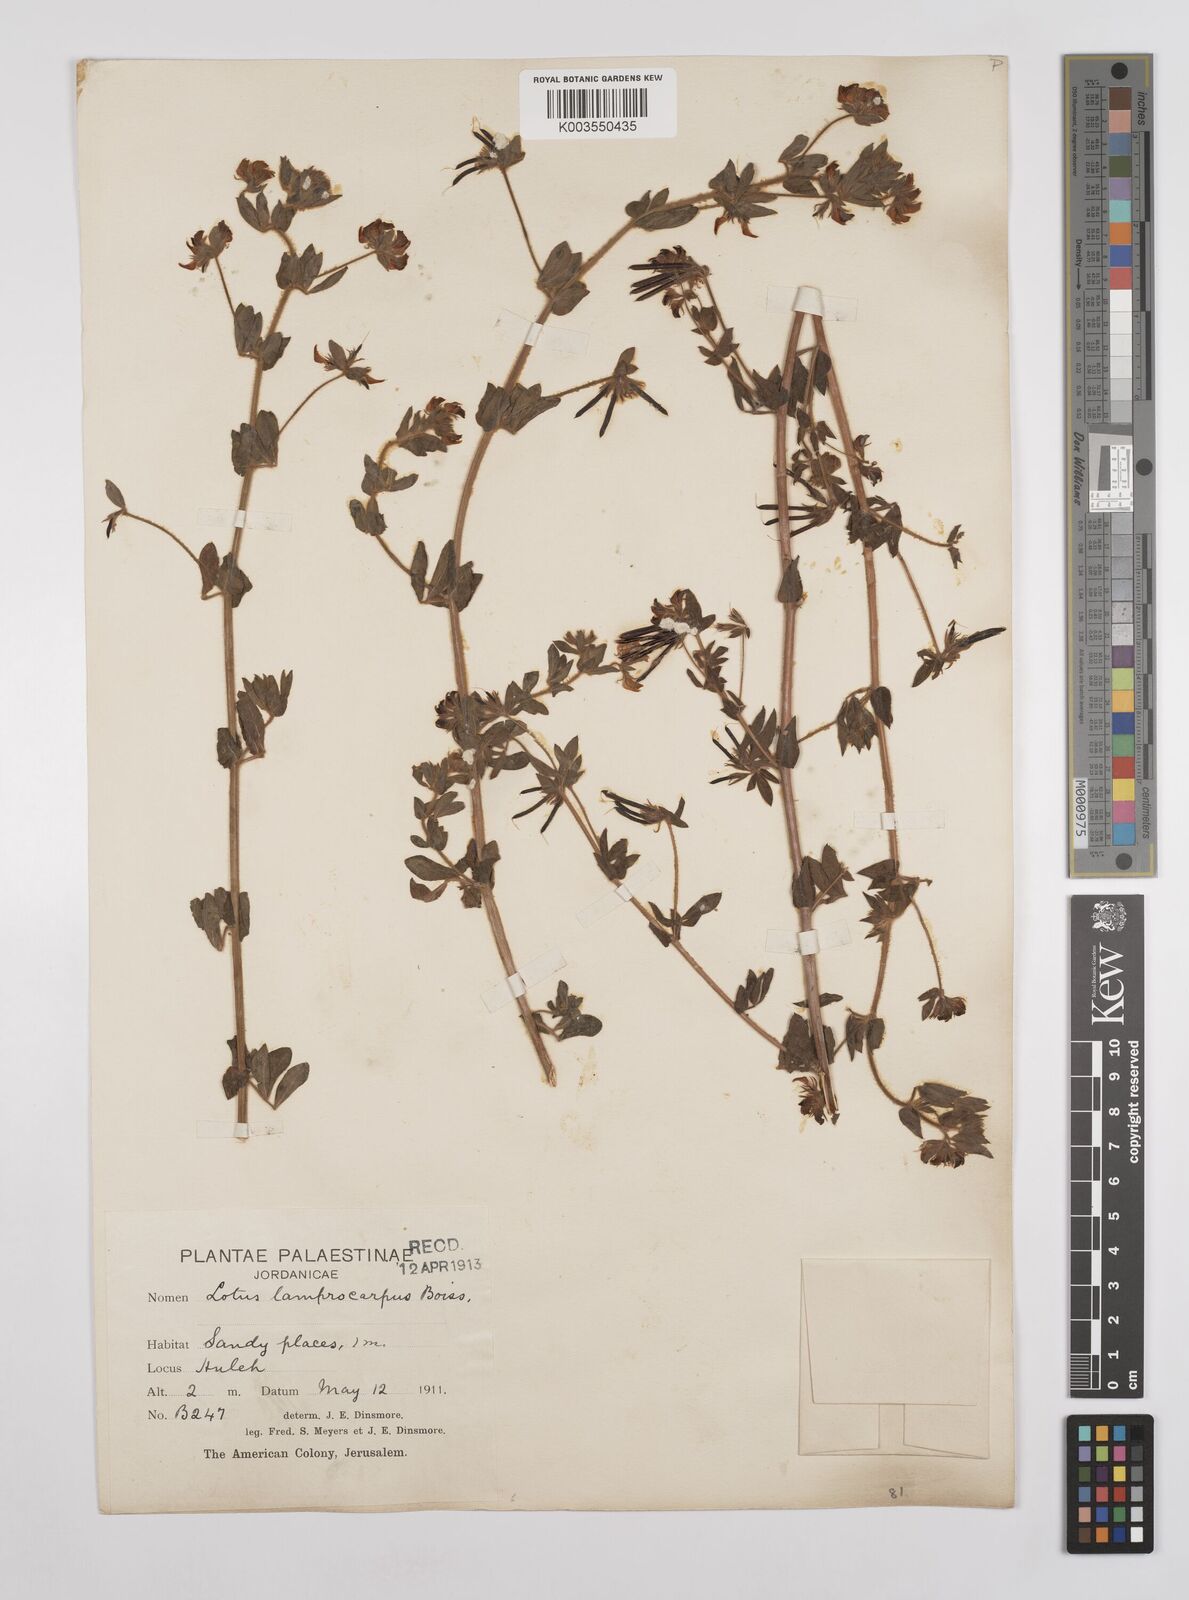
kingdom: Plantae
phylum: Tracheophyta
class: Magnoliopsida
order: Fabales
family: Fabaceae
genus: Lotus
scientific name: Lotus palustris
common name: Large birds-foot trefoil
